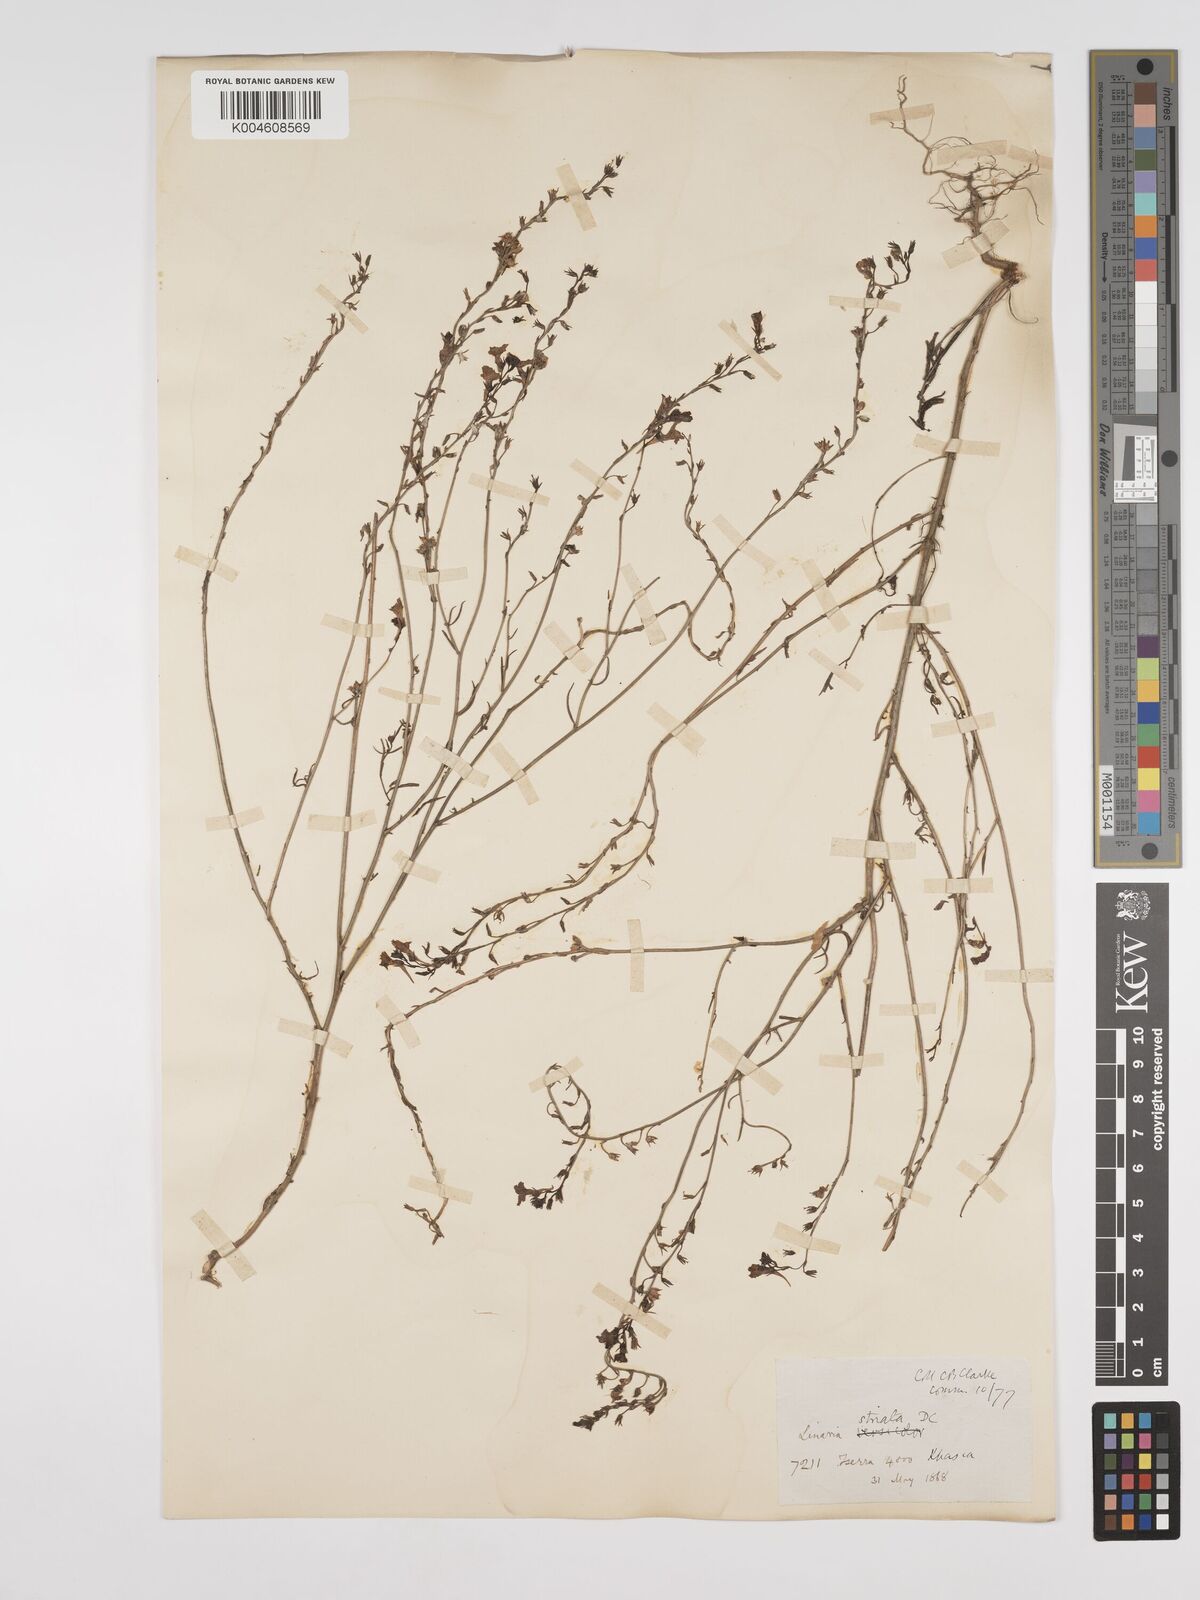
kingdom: Plantae
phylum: Tracheophyta
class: Magnoliopsida
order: Lamiales
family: Plantaginaceae
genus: Kickxia
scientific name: Kickxia
